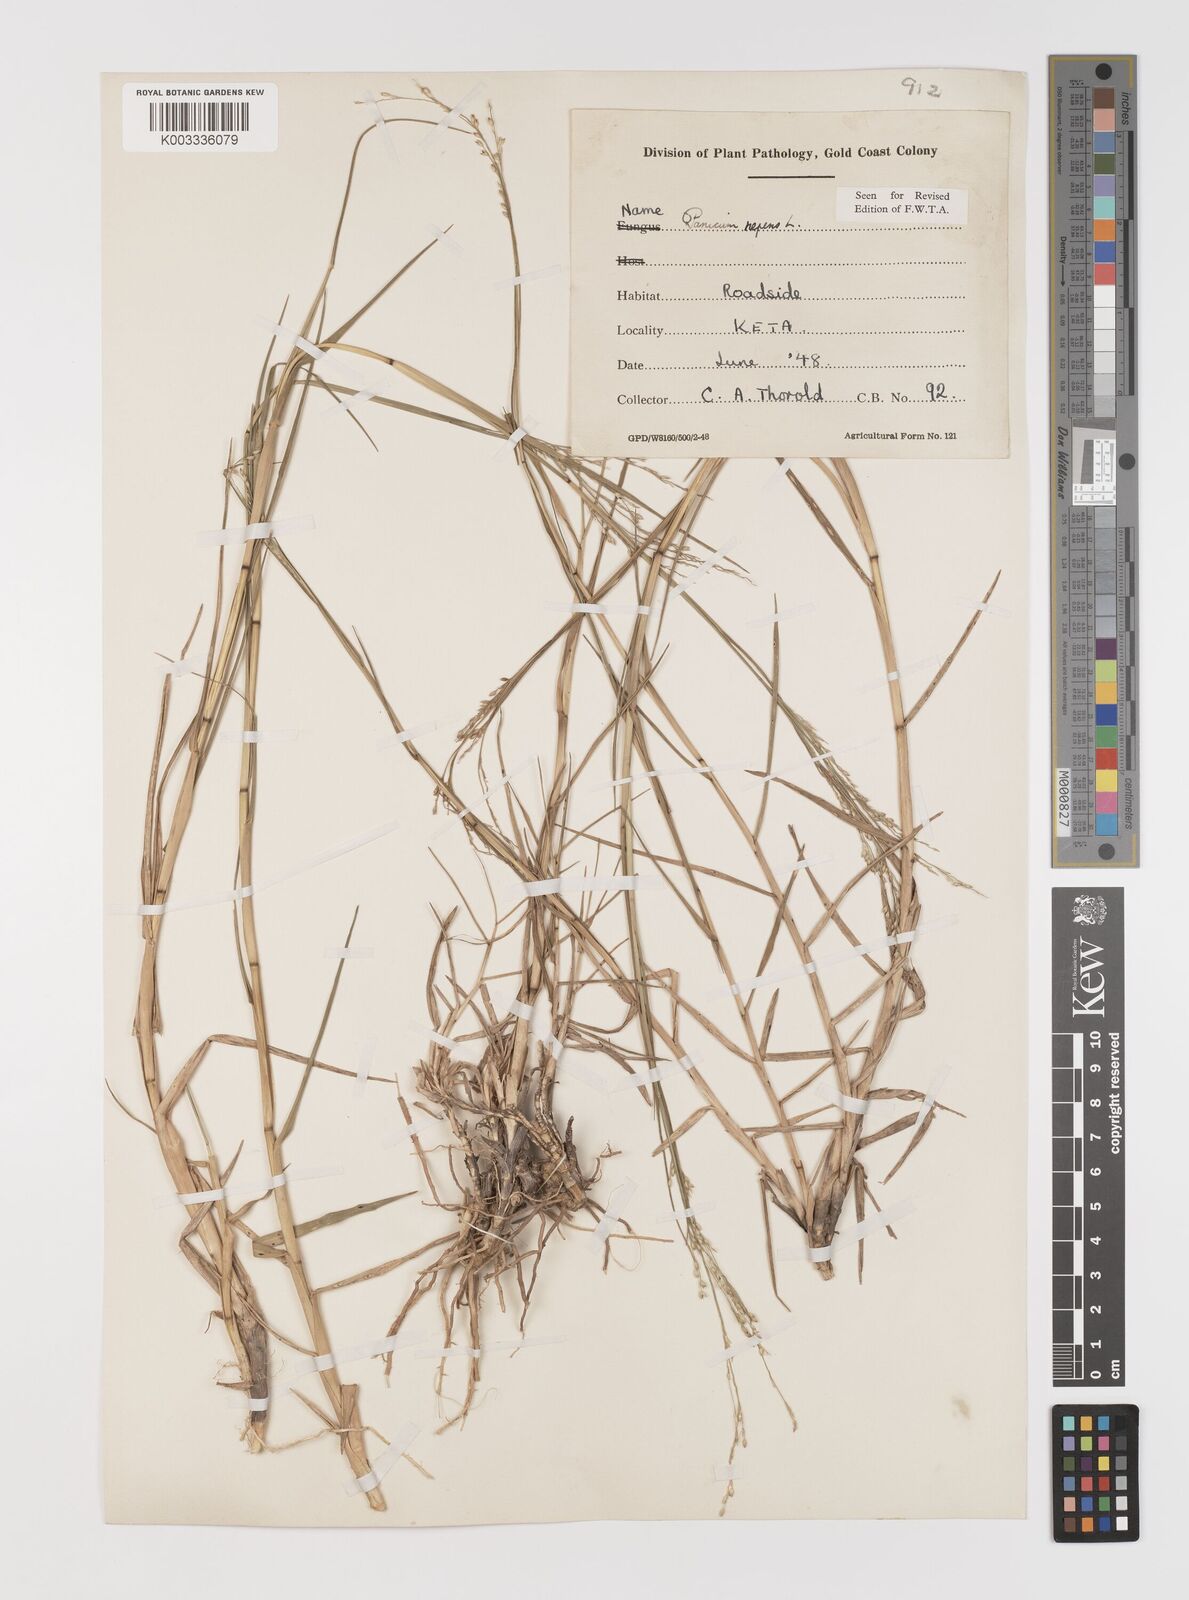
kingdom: Plantae
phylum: Tracheophyta
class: Liliopsida
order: Poales
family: Poaceae
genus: Panicum
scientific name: Panicum repens
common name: Torpedo grass
